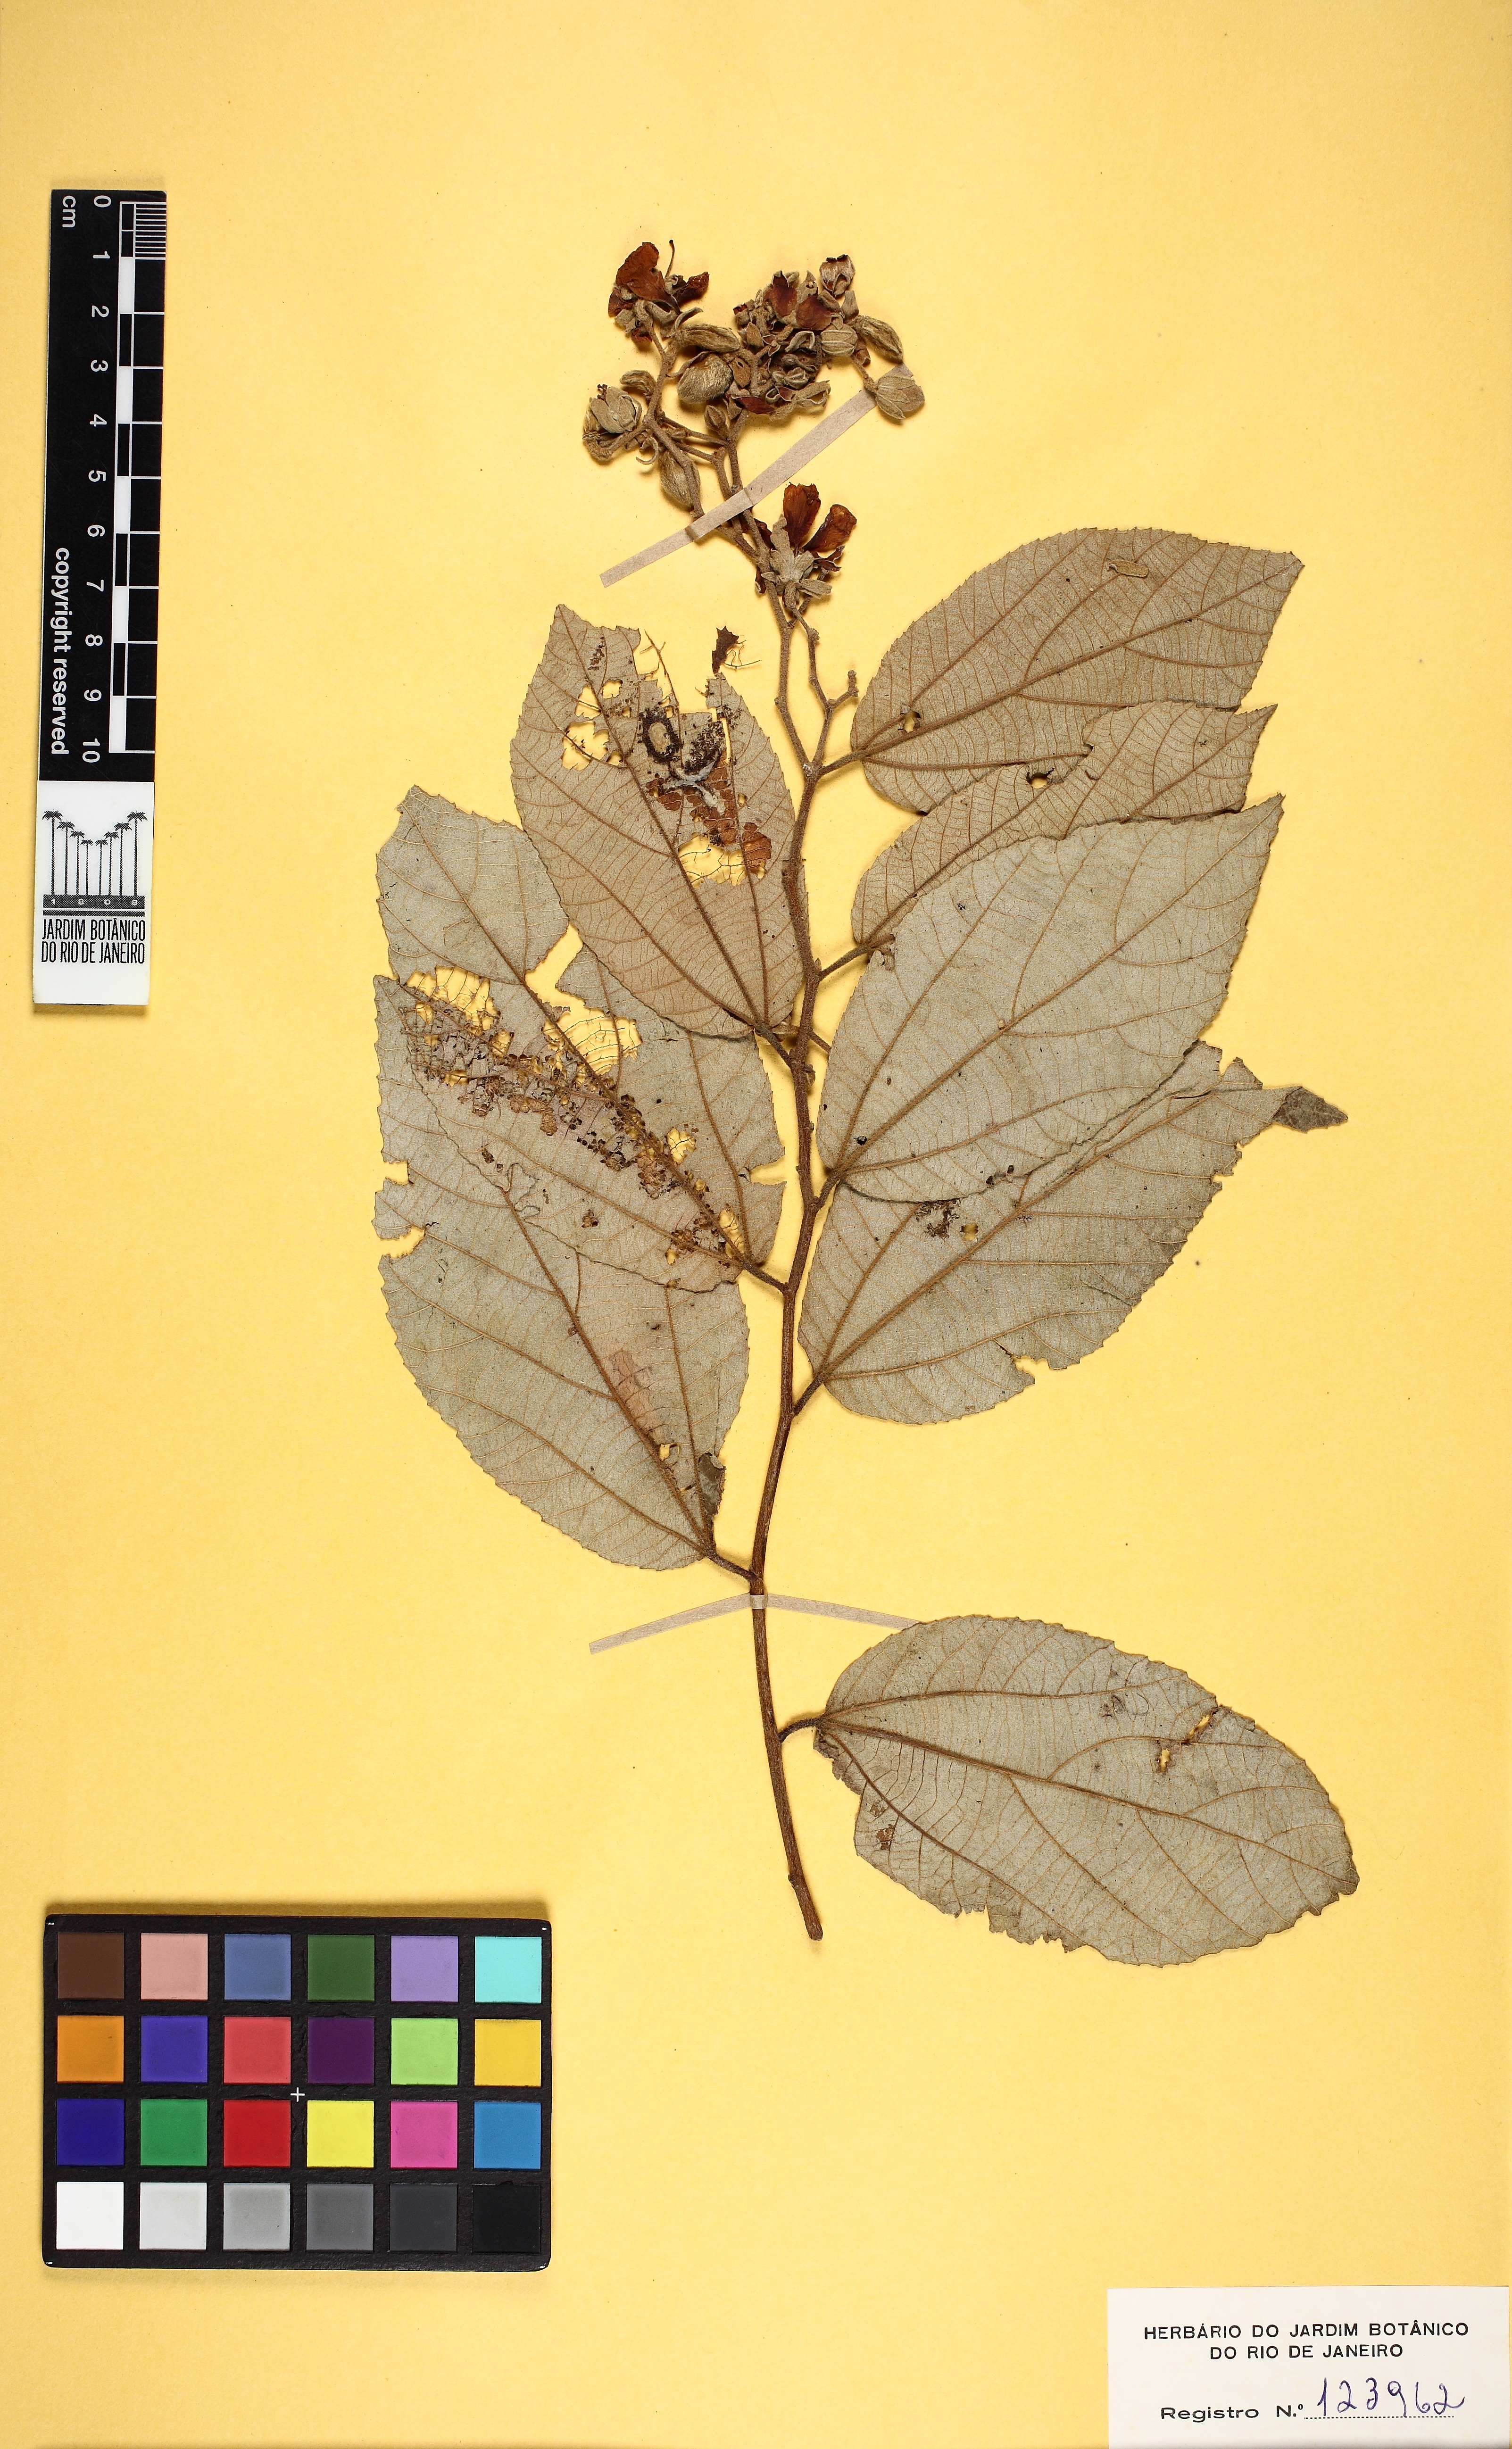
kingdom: Plantae
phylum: Tracheophyta
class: Magnoliopsida
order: Malvales
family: Malvaceae
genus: Luehea
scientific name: Luehea divaricata
